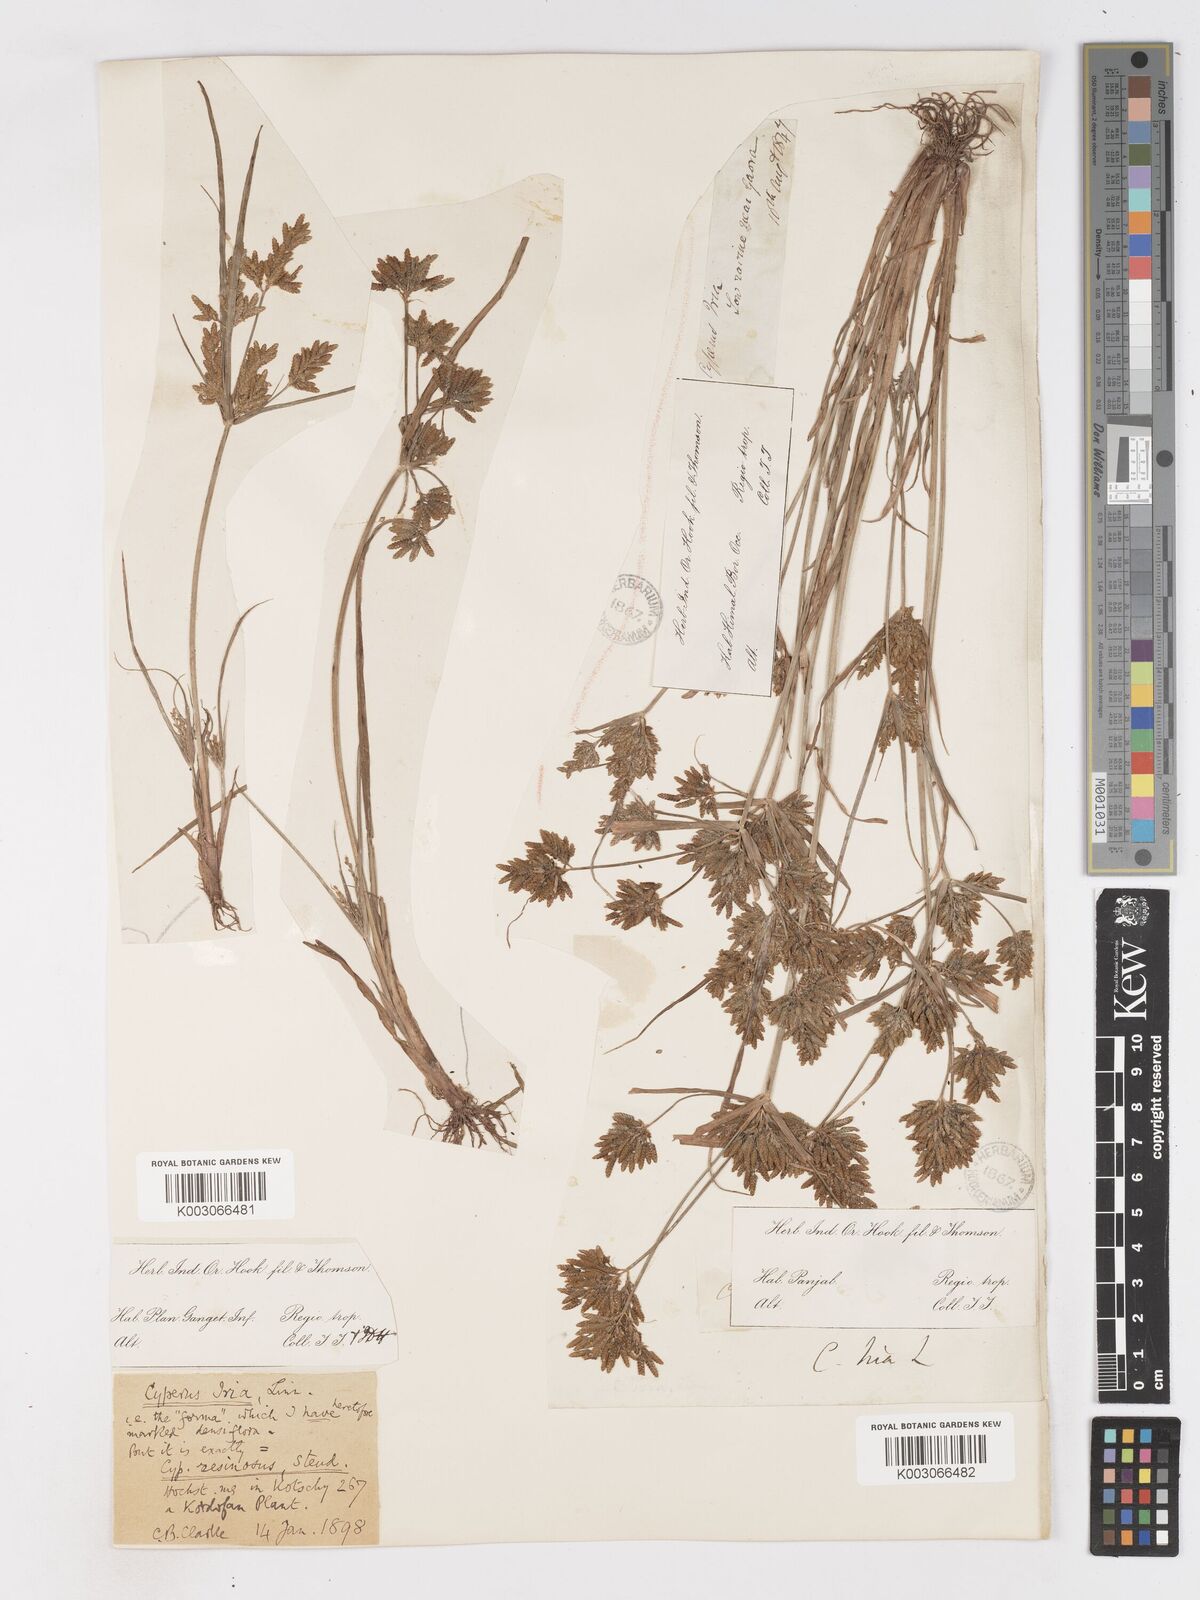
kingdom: Plantae
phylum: Tracheophyta
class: Liliopsida
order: Poales
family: Cyperaceae
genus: Cyperus
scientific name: Cyperus iria
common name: Ricefield flatsedge
